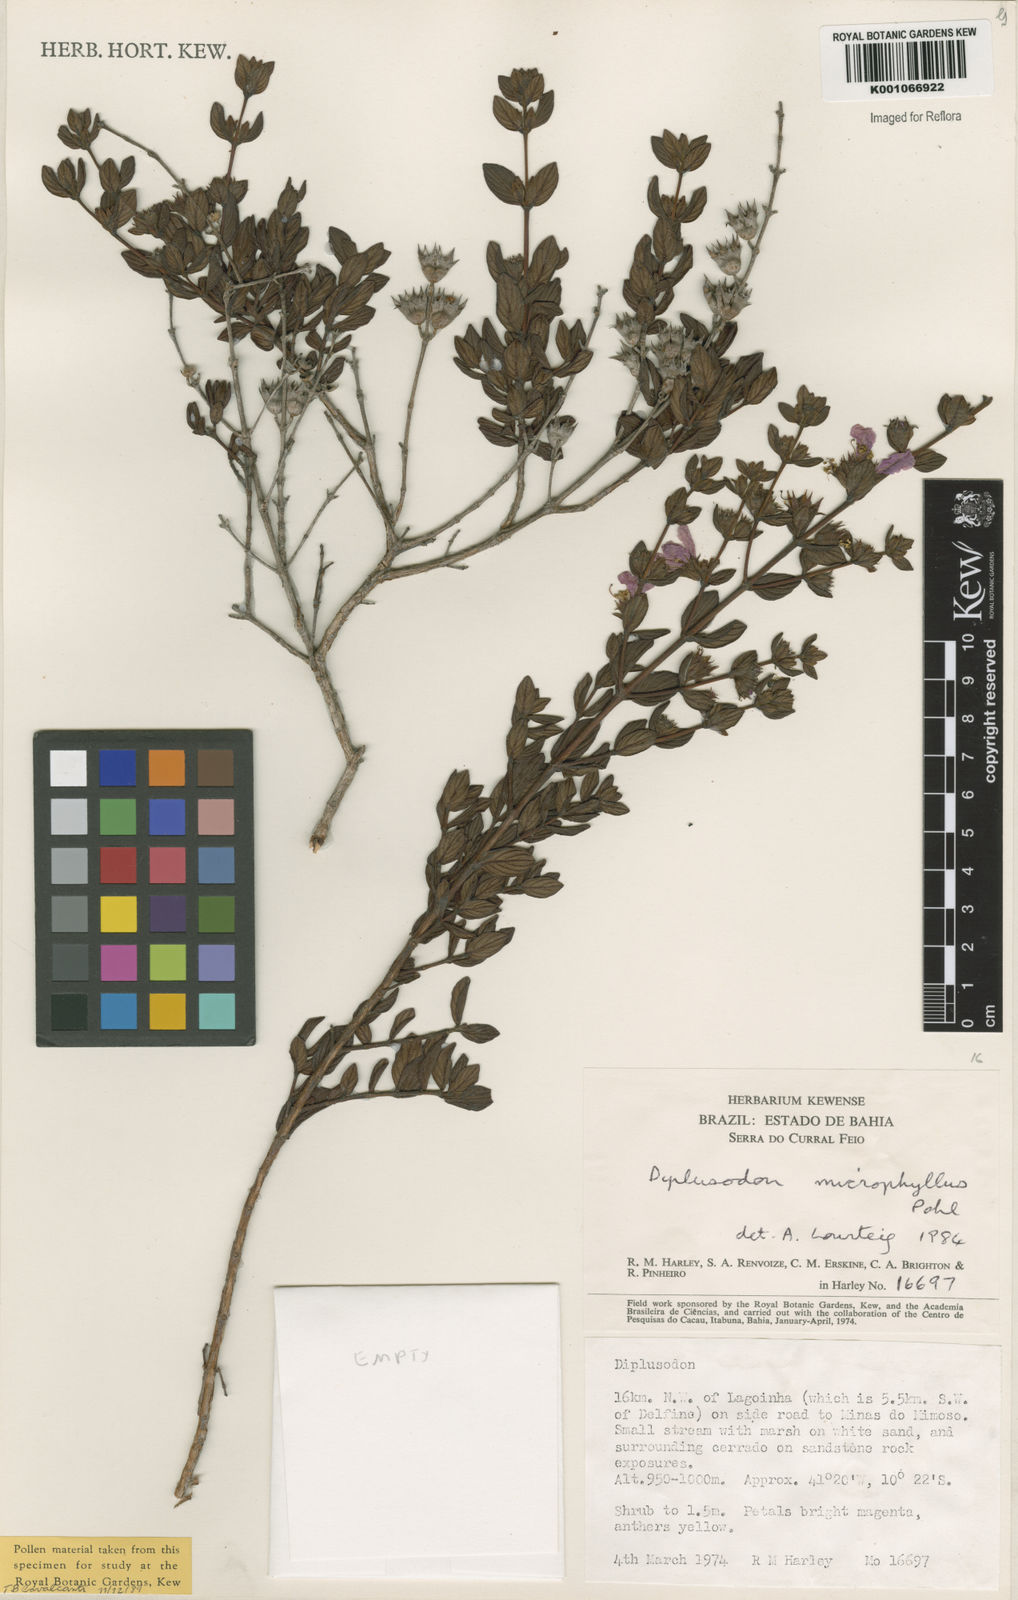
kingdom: Plantae
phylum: Tracheophyta
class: Magnoliopsida
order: Myrtales
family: Lythraceae
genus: Diplusodon
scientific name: Diplusodon microphyllus
